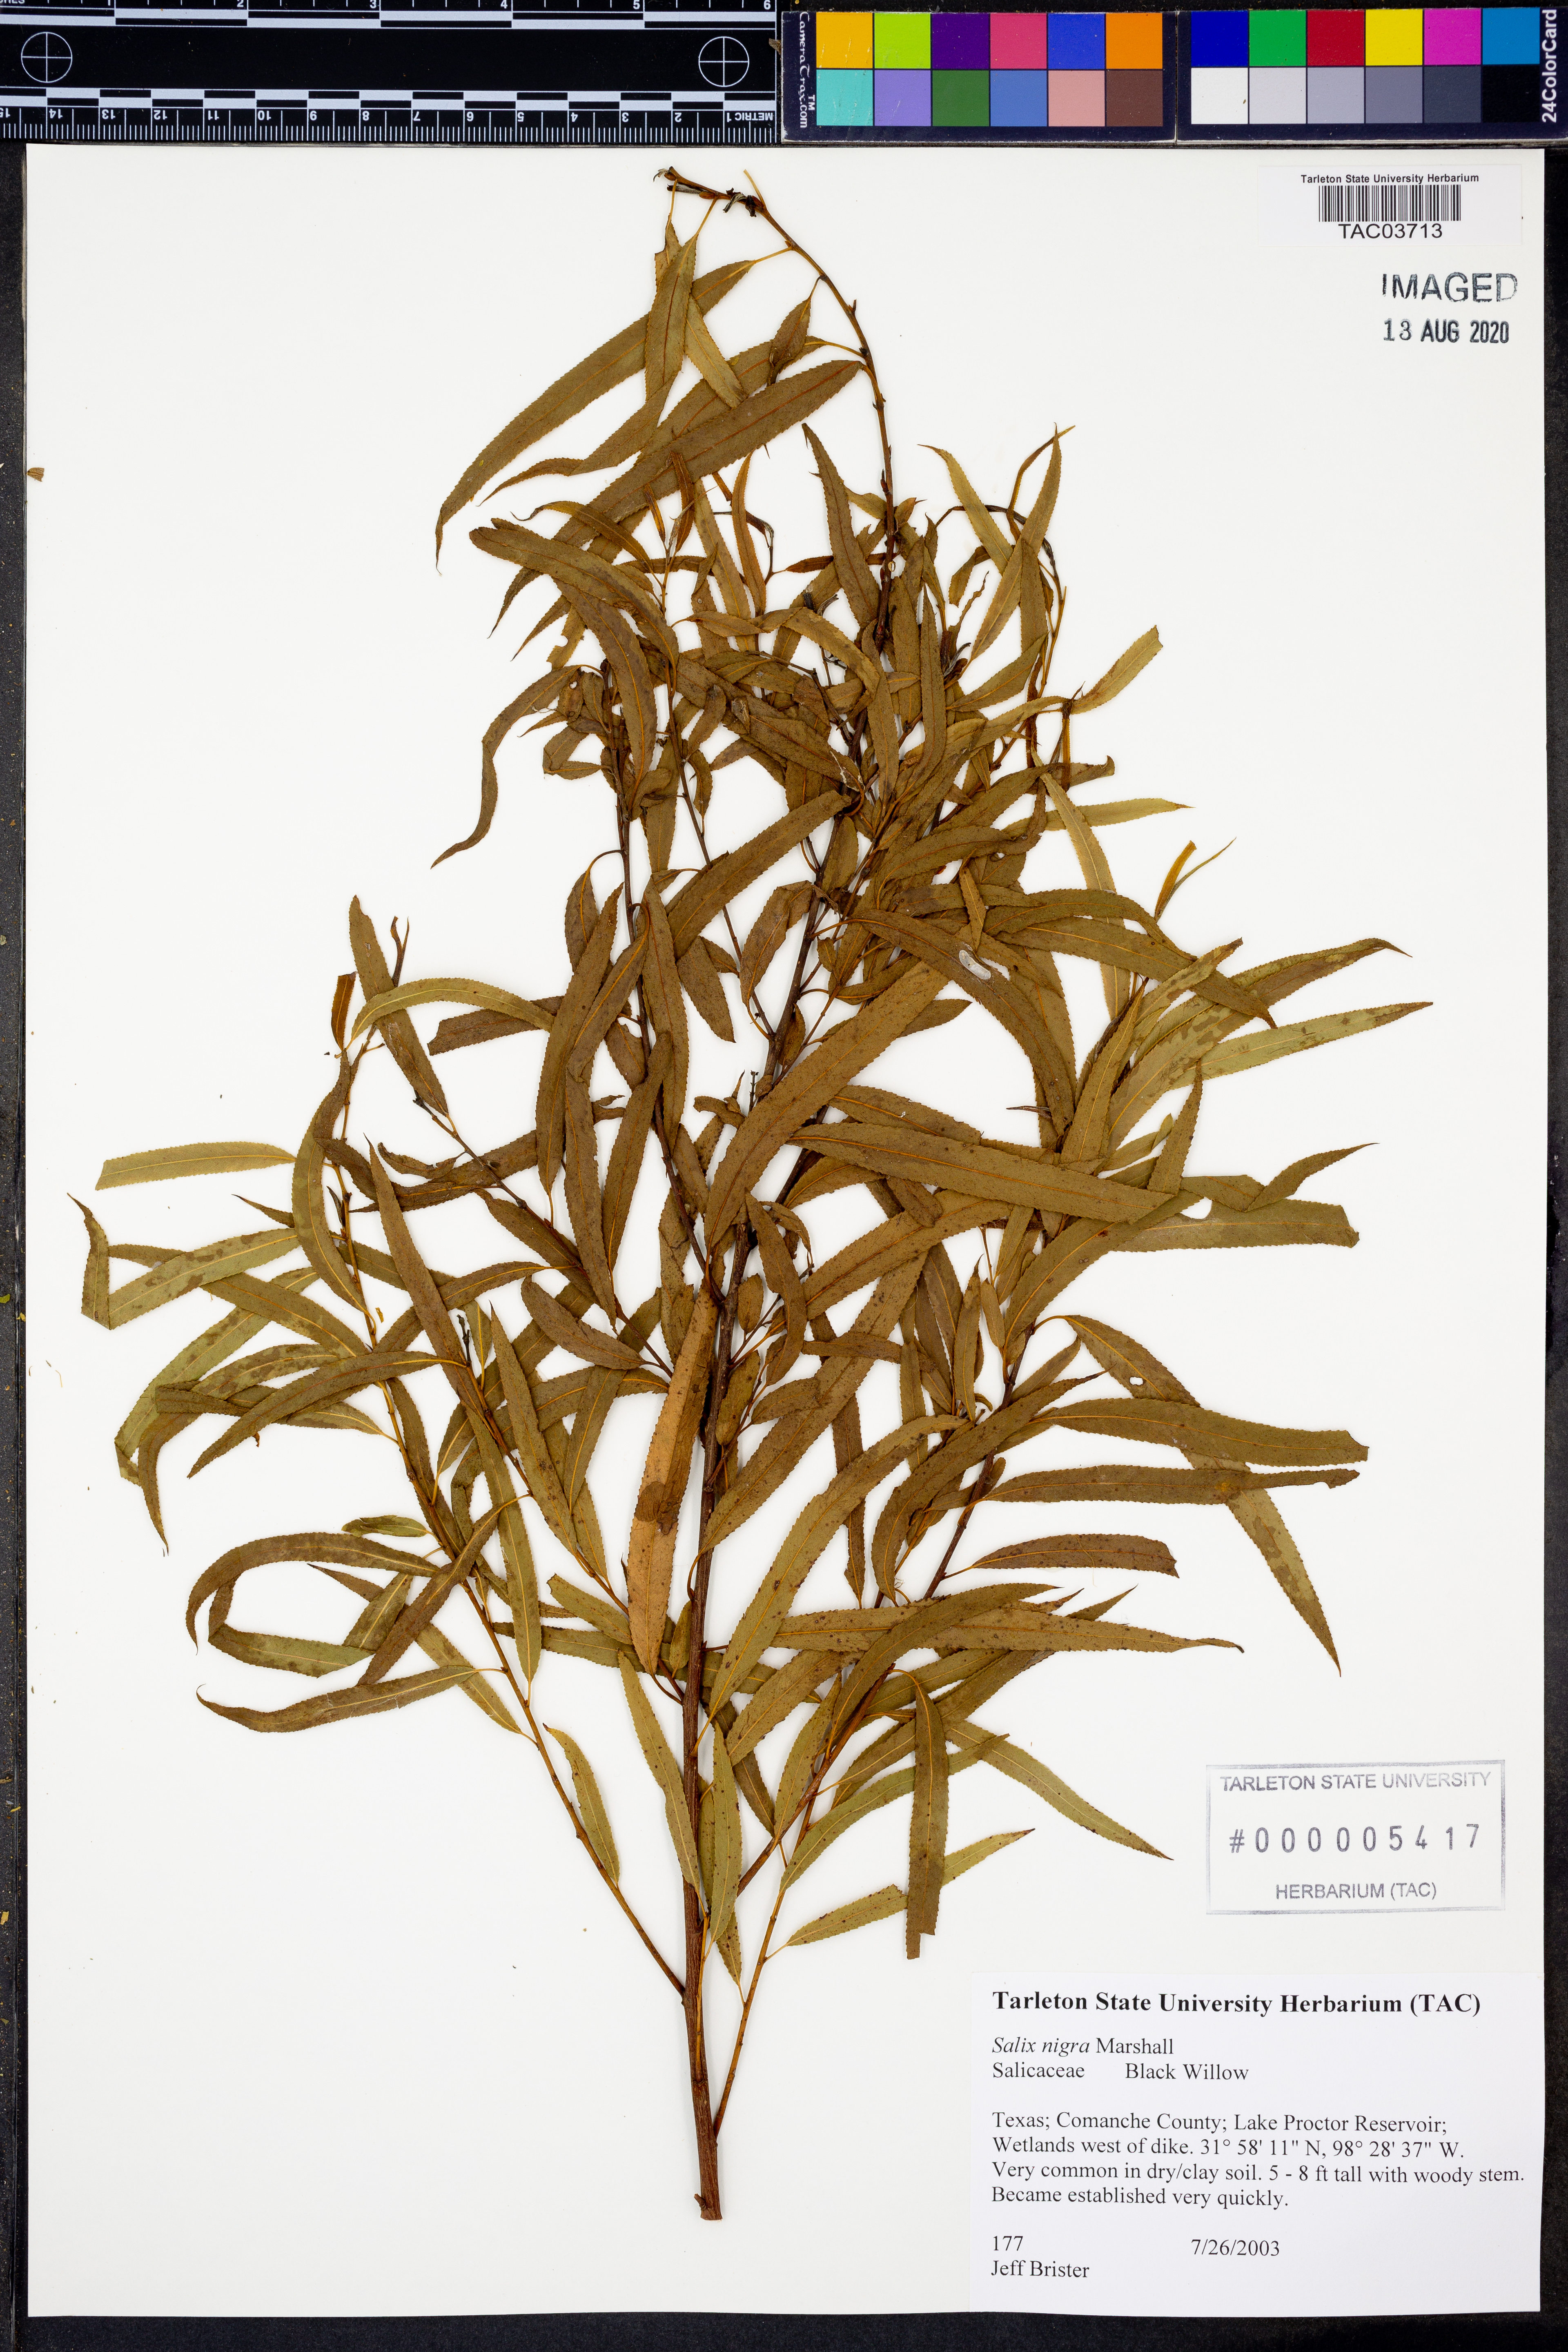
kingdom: Plantae
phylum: Tracheophyta
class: Magnoliopsida
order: Malpighiales
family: Salicaceae
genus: Salix
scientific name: Salix nigra
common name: Black willow
